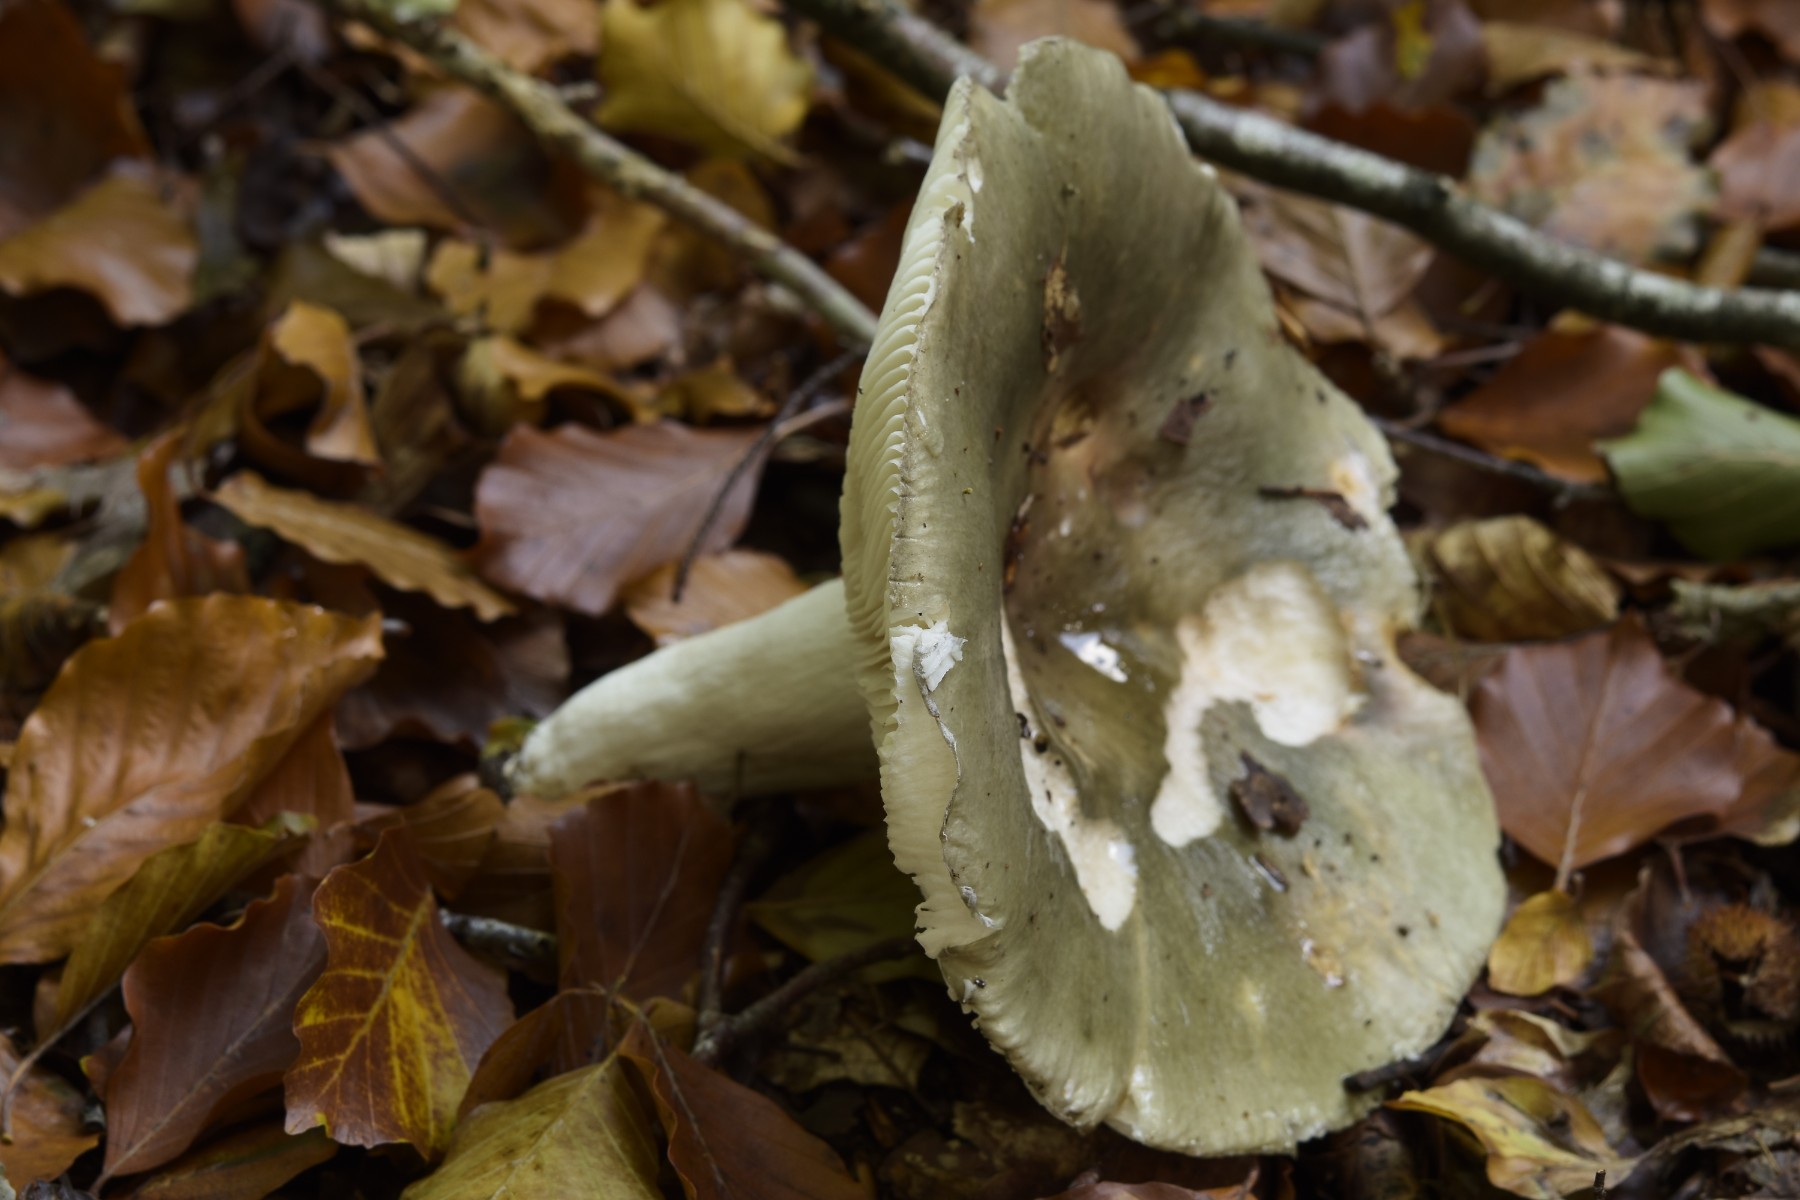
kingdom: Fungi
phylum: Basidiomycota
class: Agaricomycetes
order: Russulales
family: Russulaceae
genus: Russula
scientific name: Russula cyanoxantha
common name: broget skørhat
